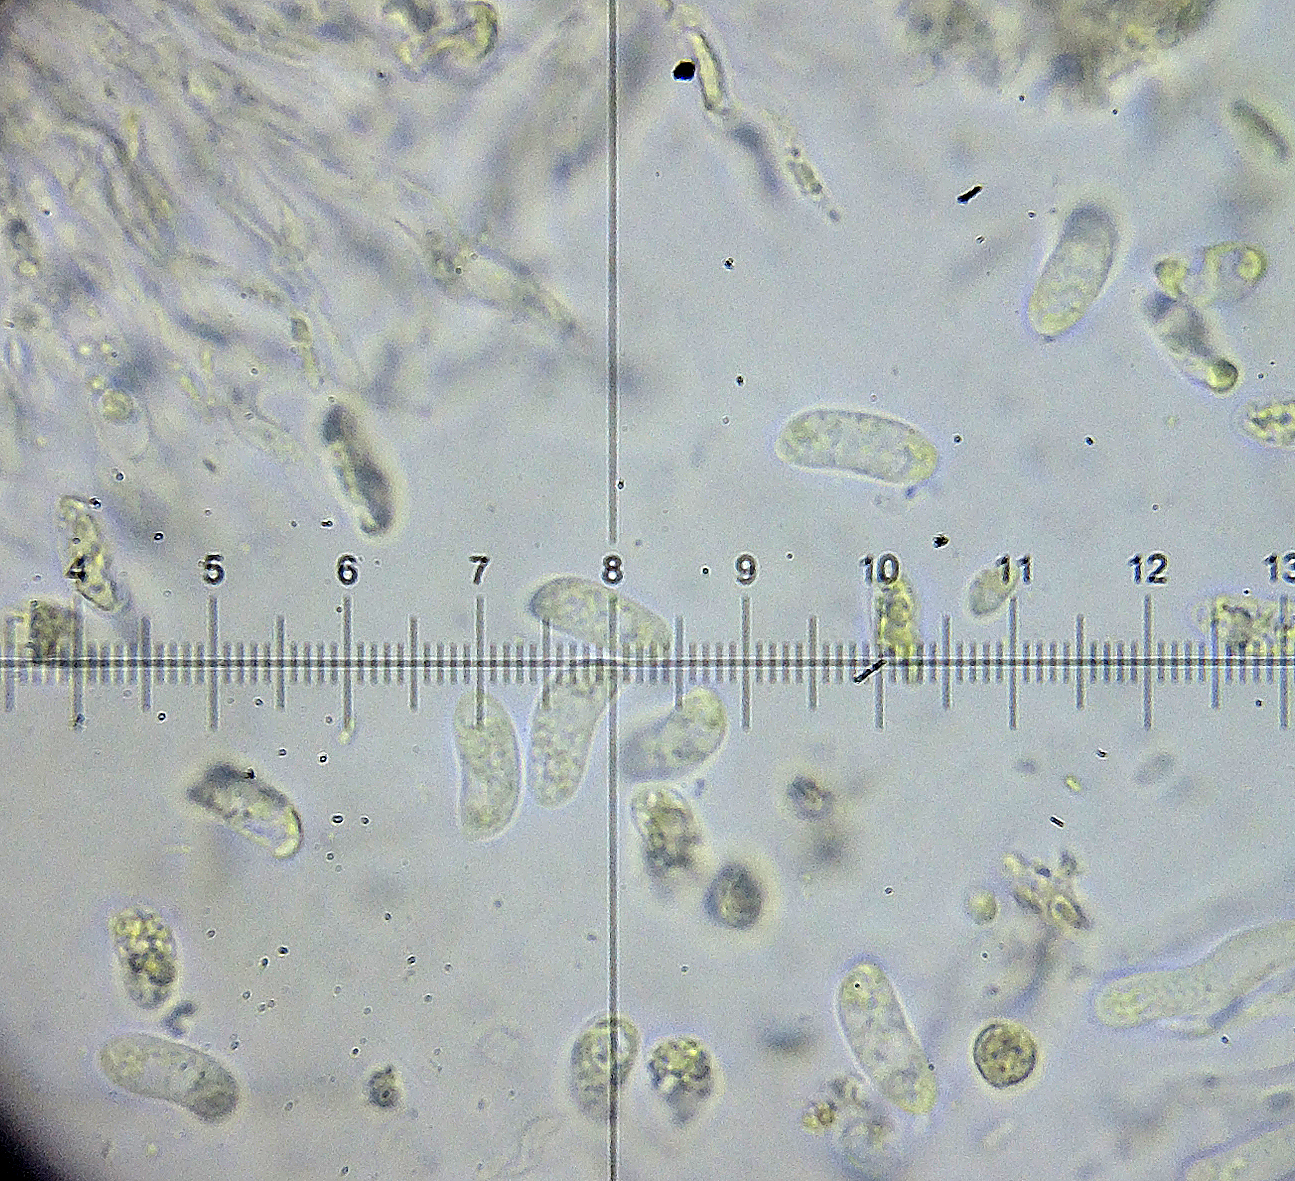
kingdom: Fungi
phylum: Basidiomycota
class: Dacrymycetes
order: Dacrymycetales
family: Dacrymycetaceae
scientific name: Dacrymycetaceae
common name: tåresvampfamilien
